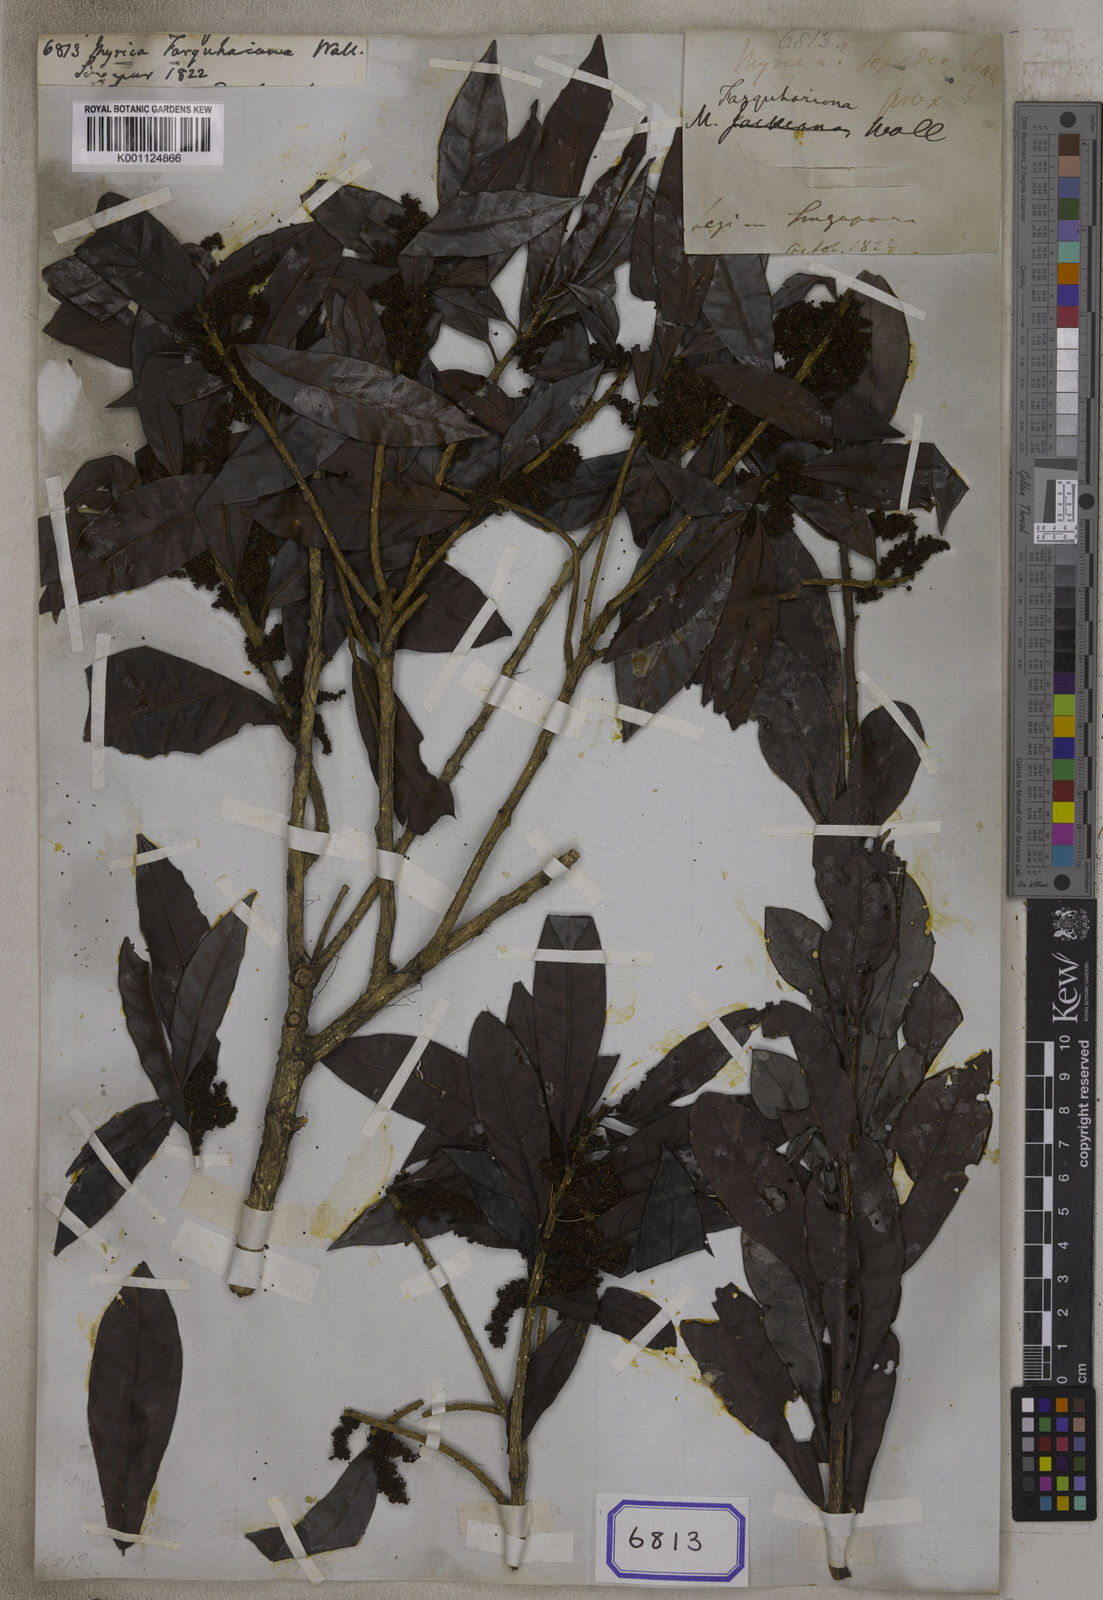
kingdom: Plantae
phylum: Tracheophyta
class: Magnoliopsida
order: Fagales
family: Myricaceae
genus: Morella
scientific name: Morella esculenta
